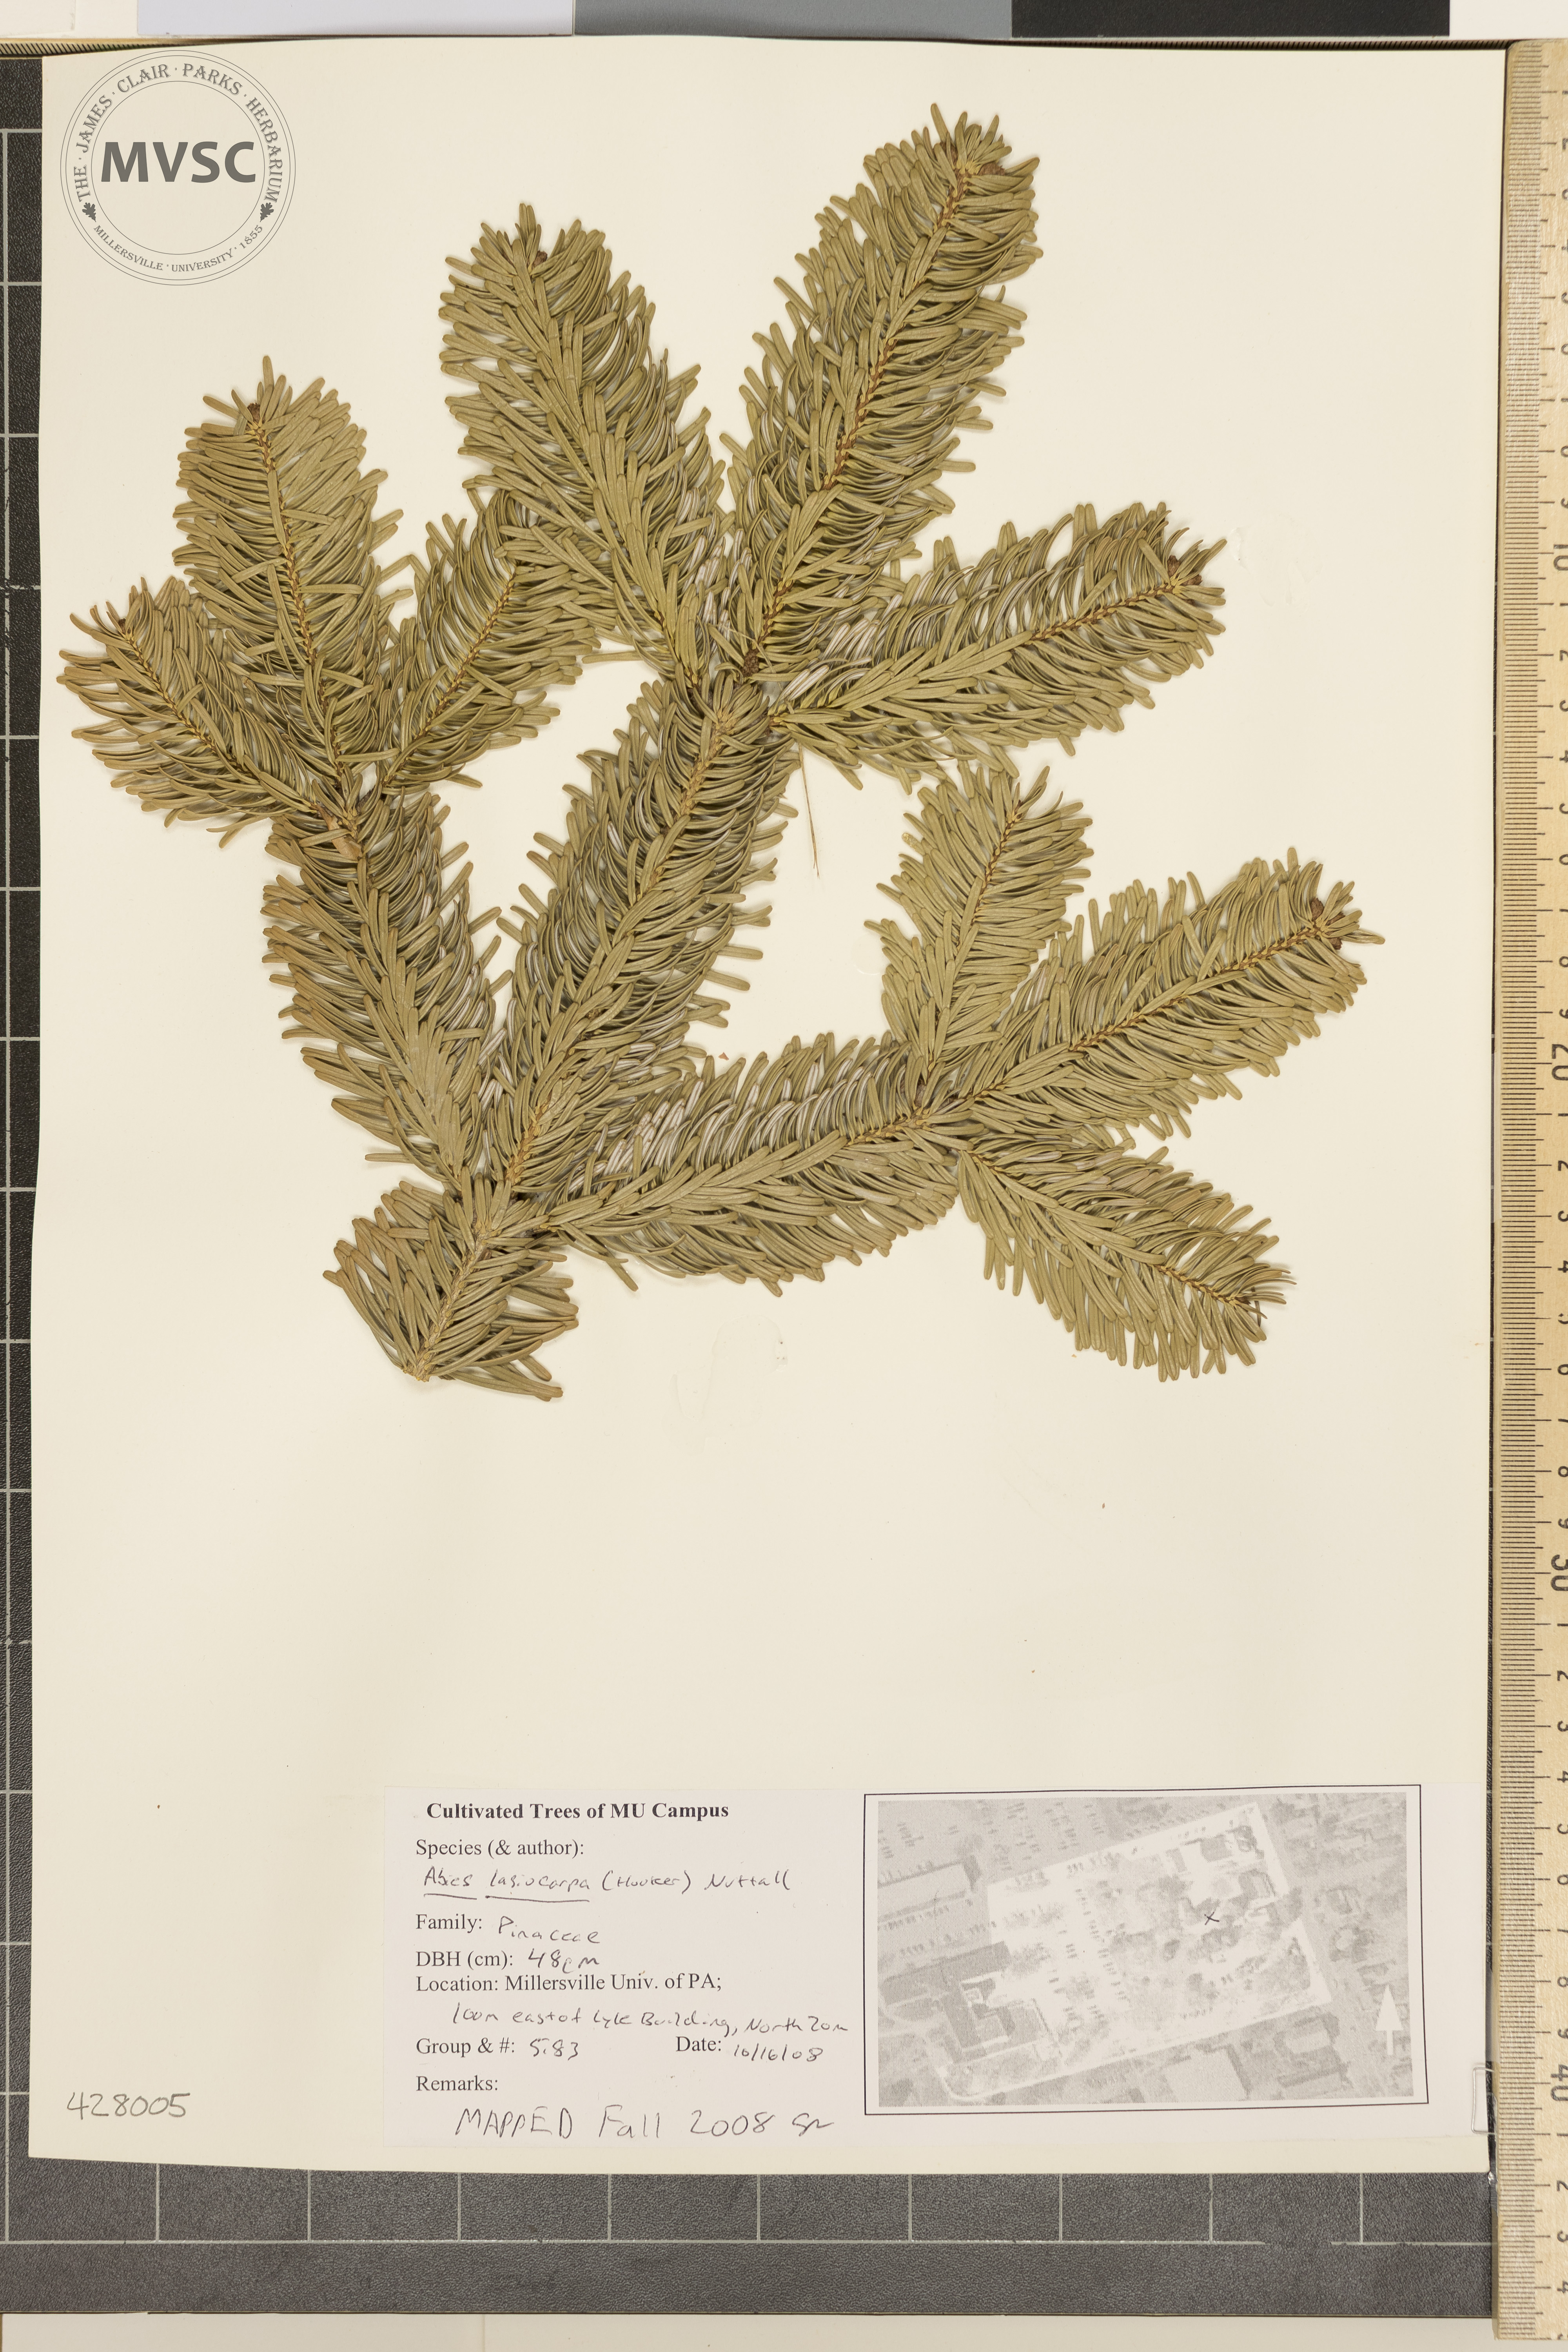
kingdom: Plantae
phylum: Tracheophyta
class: Pinopsida
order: Pinales
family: Pinaceae
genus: Abies
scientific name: Abies lasiocarpa
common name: Subalpine Fir
